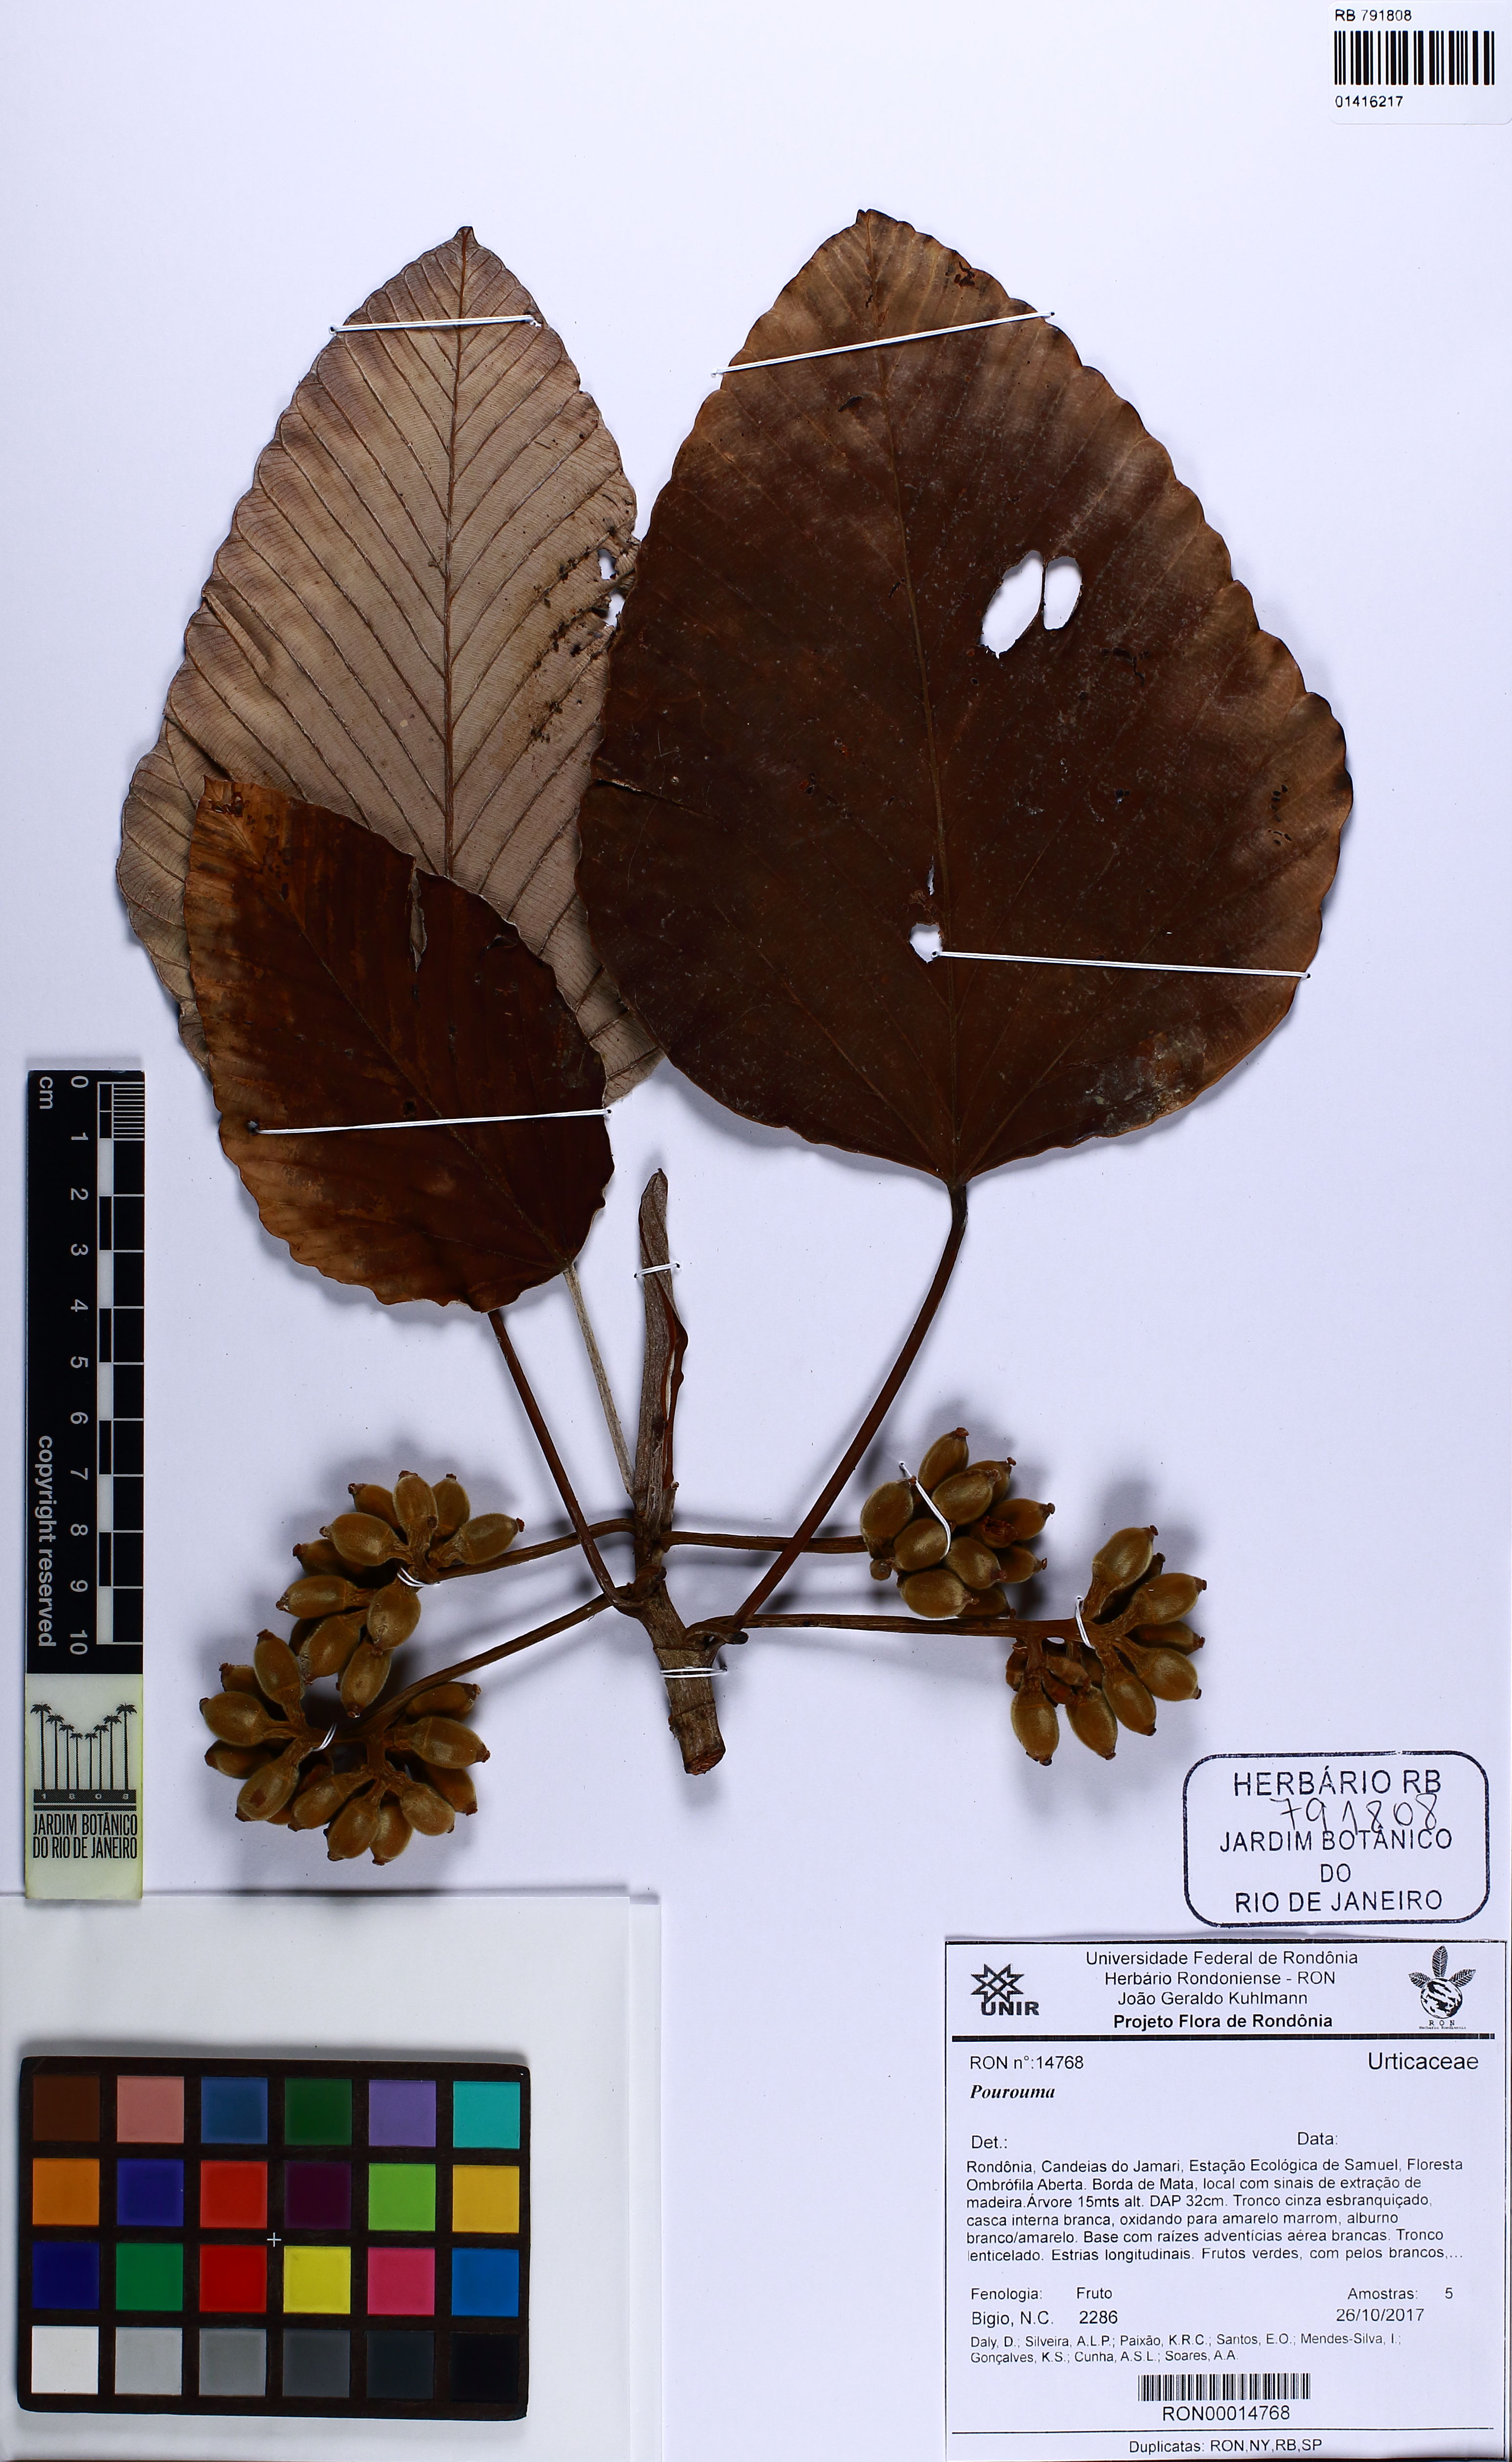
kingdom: Plantae
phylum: Tracheophyta
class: Magnoliopsida
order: Rosales
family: Urticaceae
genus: Pourouma
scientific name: Pourouma
